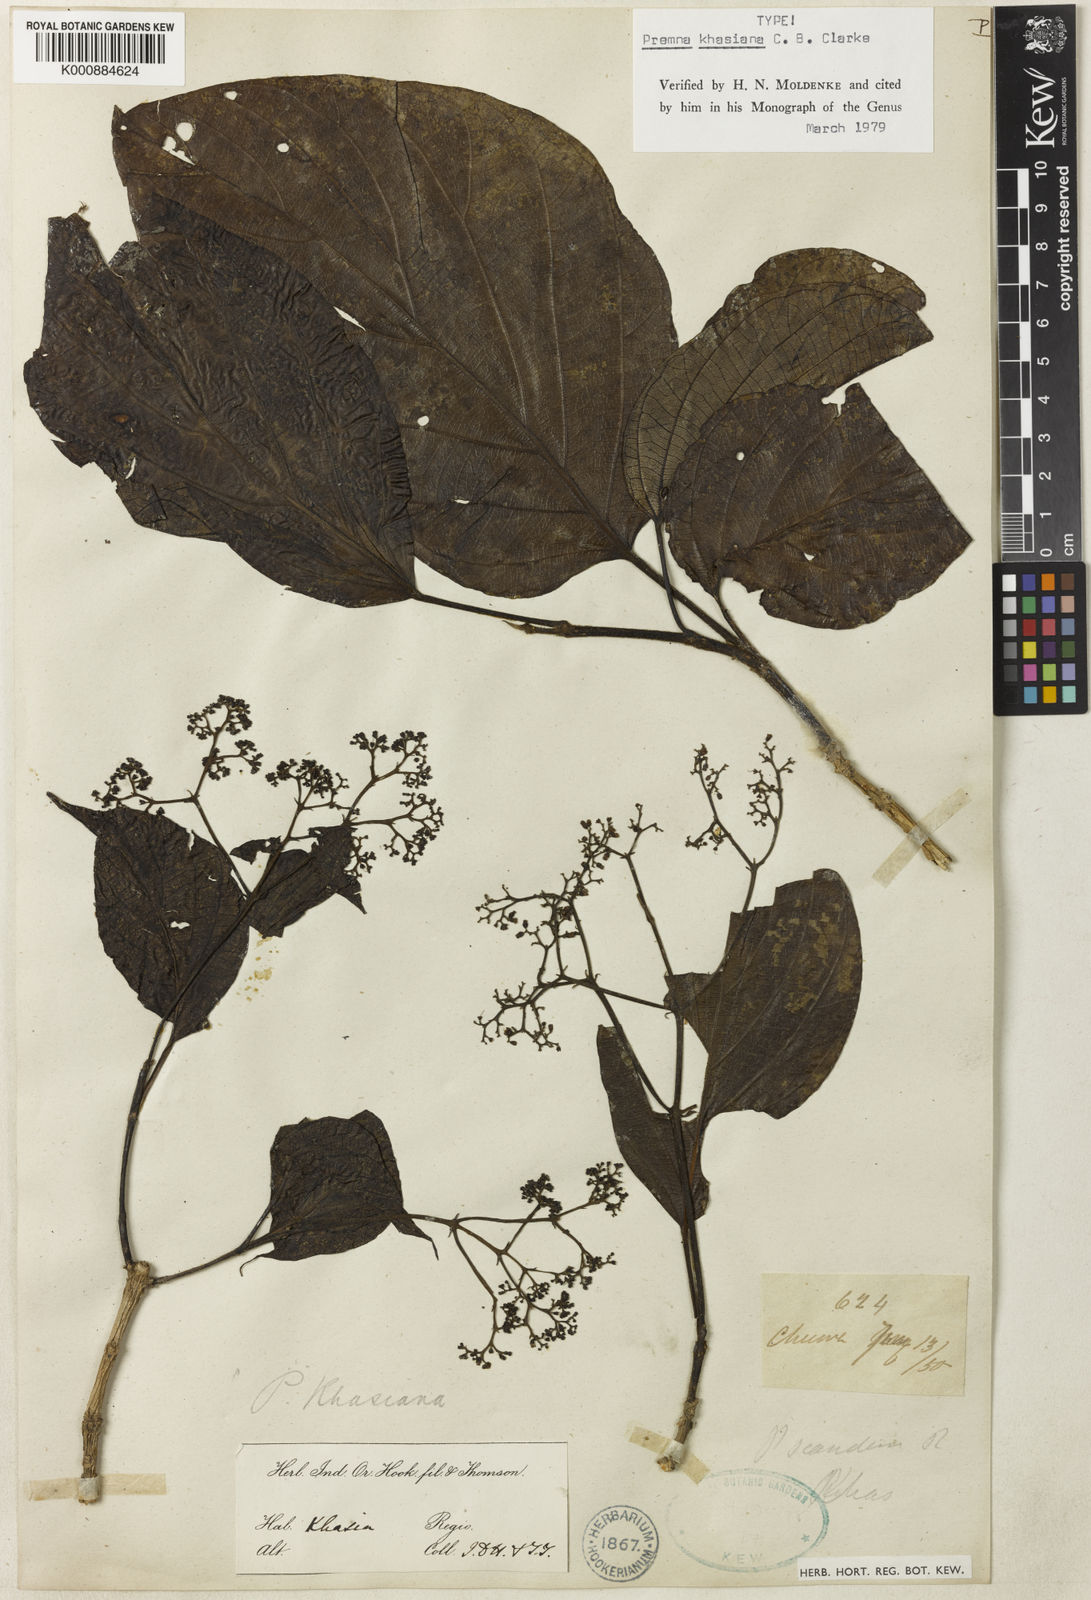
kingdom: Plantae
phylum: Tracheophyta
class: Magnoliopsida
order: Lamiales
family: Lamiaceae
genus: Premna
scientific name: Premna khasiana
